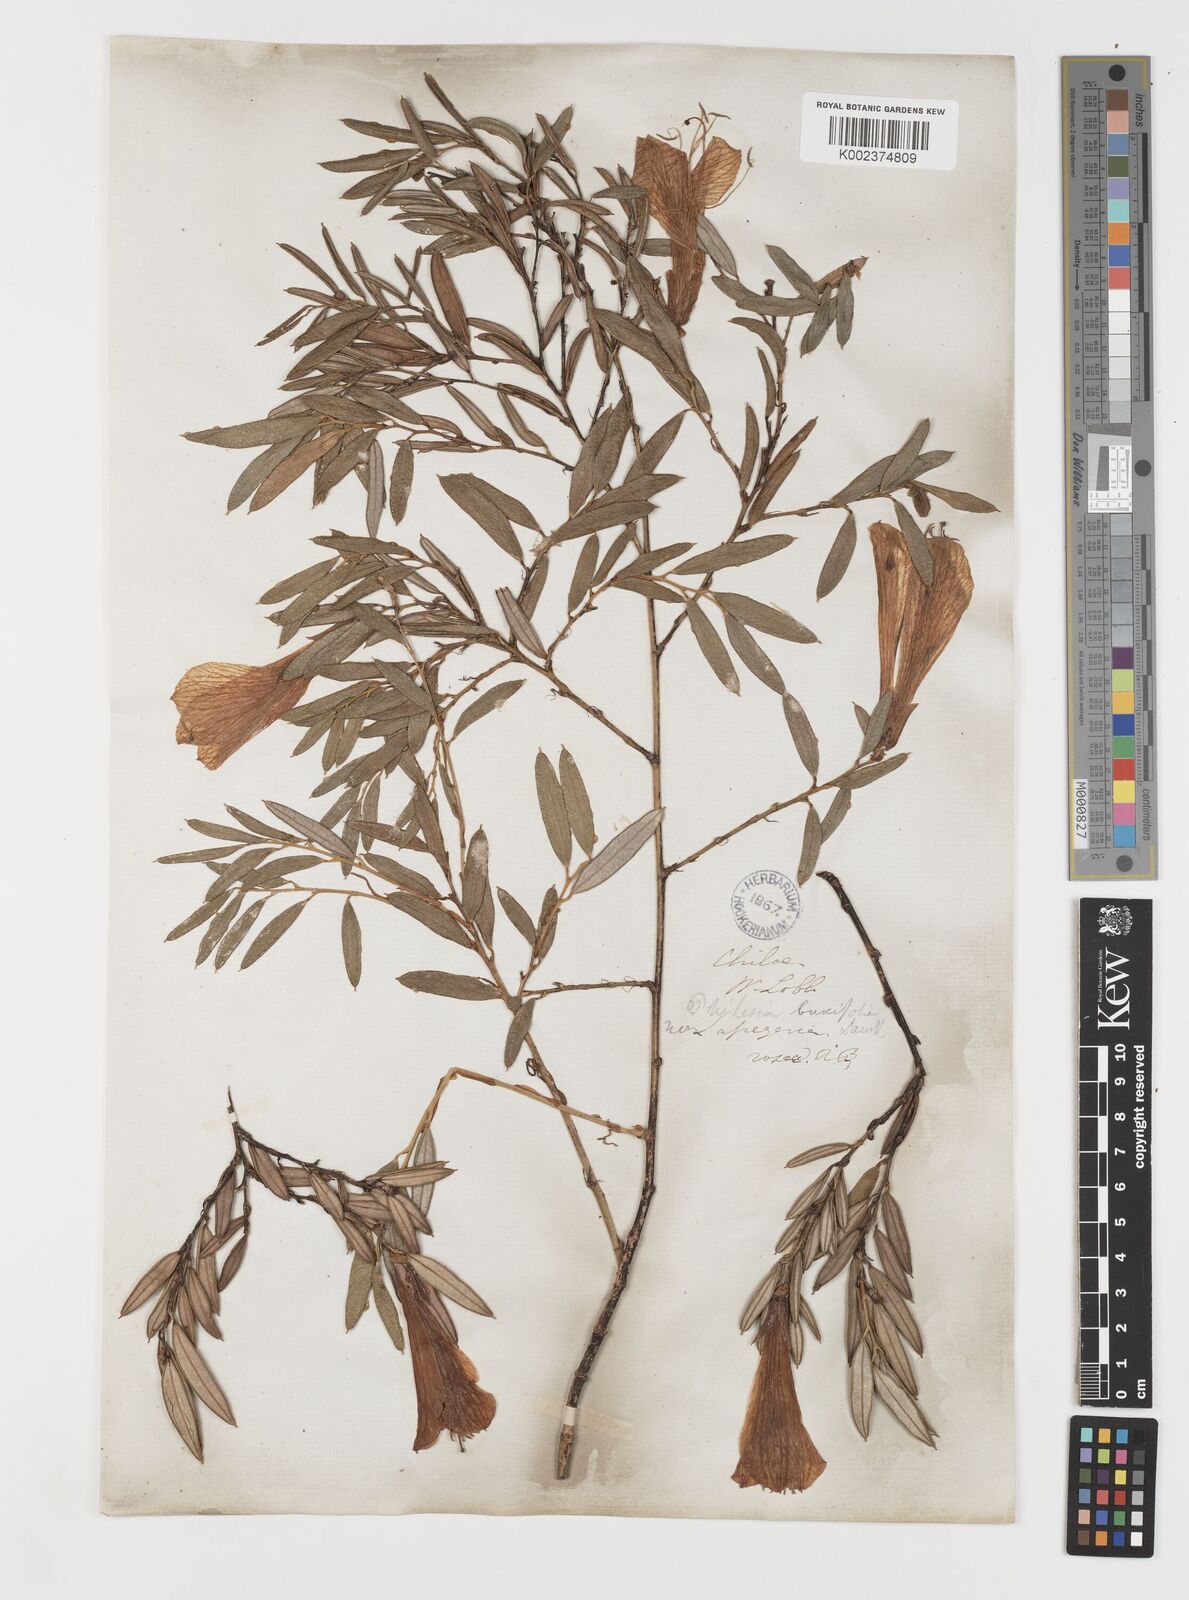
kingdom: Plantae
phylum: Tracheophyta
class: Liliopsida
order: Liliales
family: Philesiaceae
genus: Philesia
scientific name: Philesia magellanica
